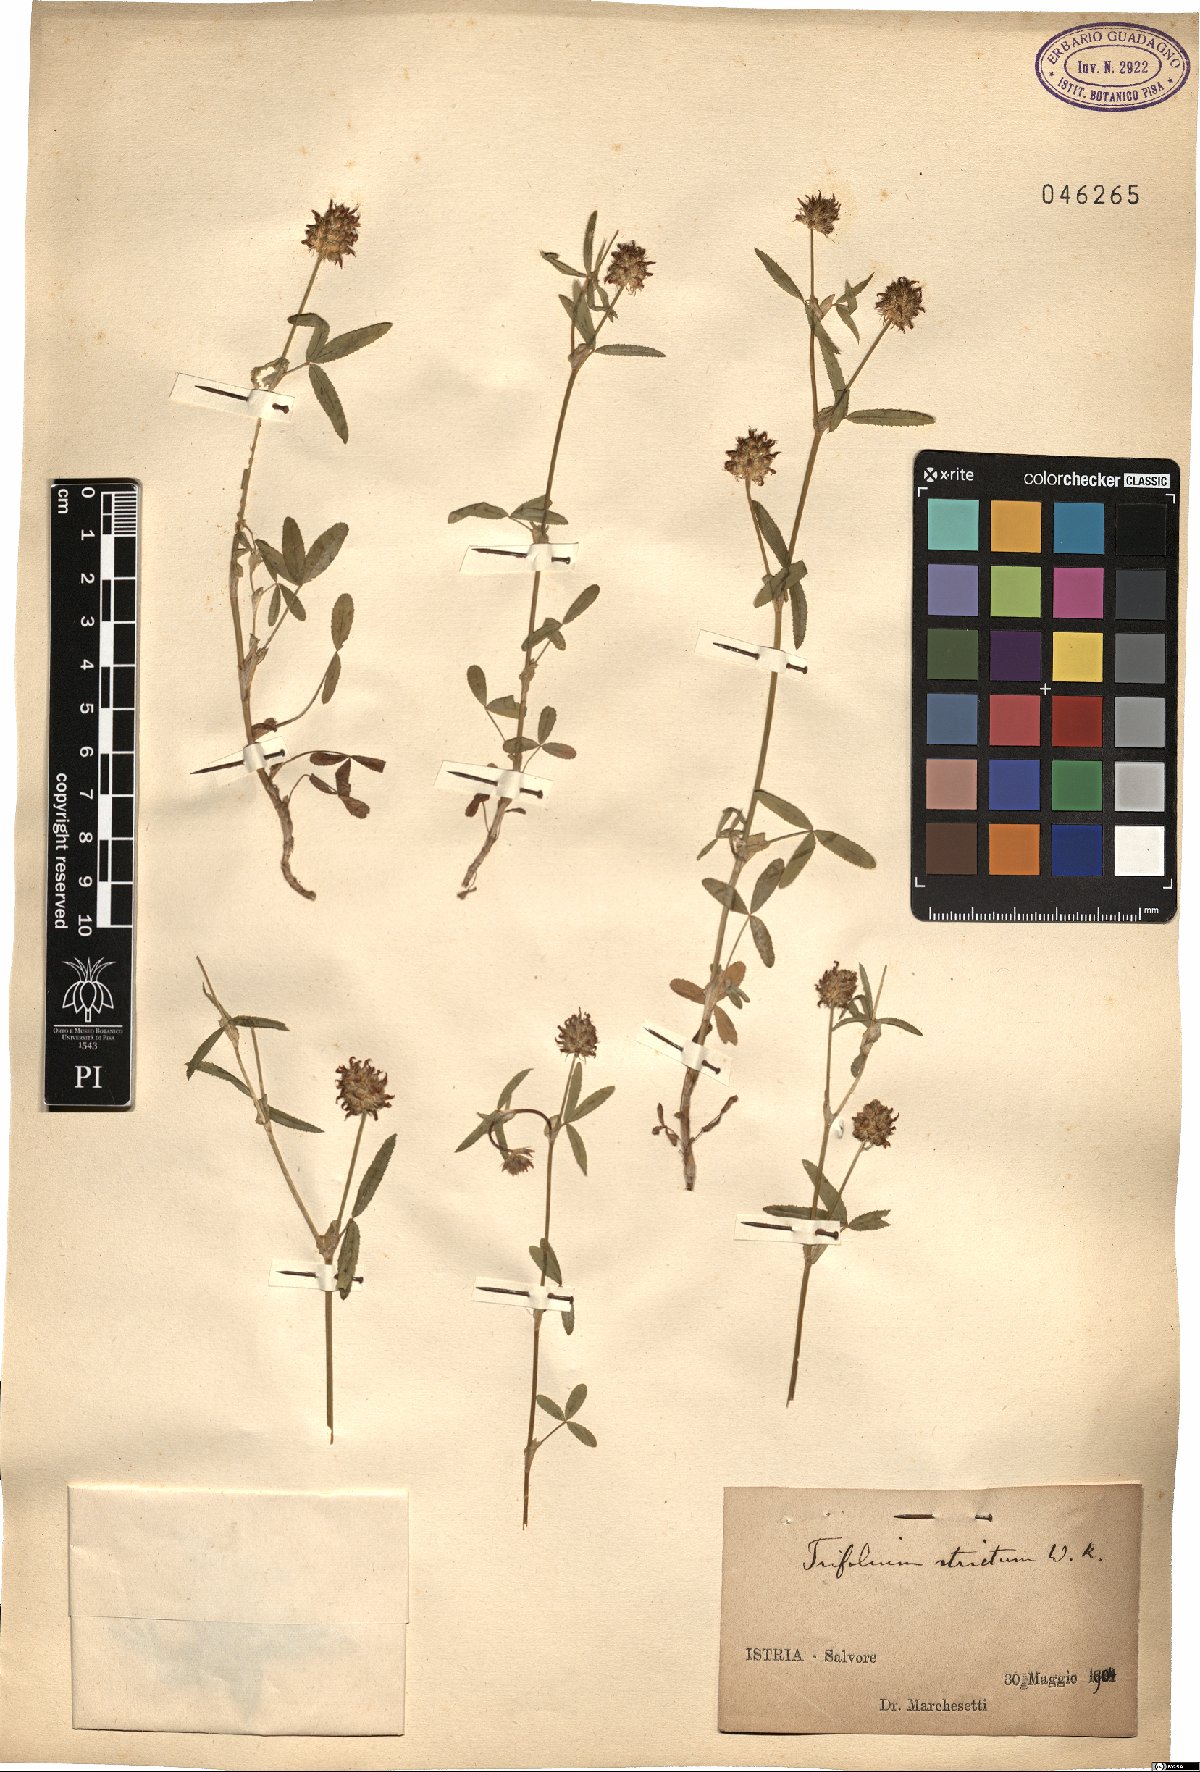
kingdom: Plantae
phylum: Tracheophyta
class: Magnoliopsida
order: Fabales
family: Fabaceae
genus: Trifolium
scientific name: Trifolium strictum
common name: Upright clover
